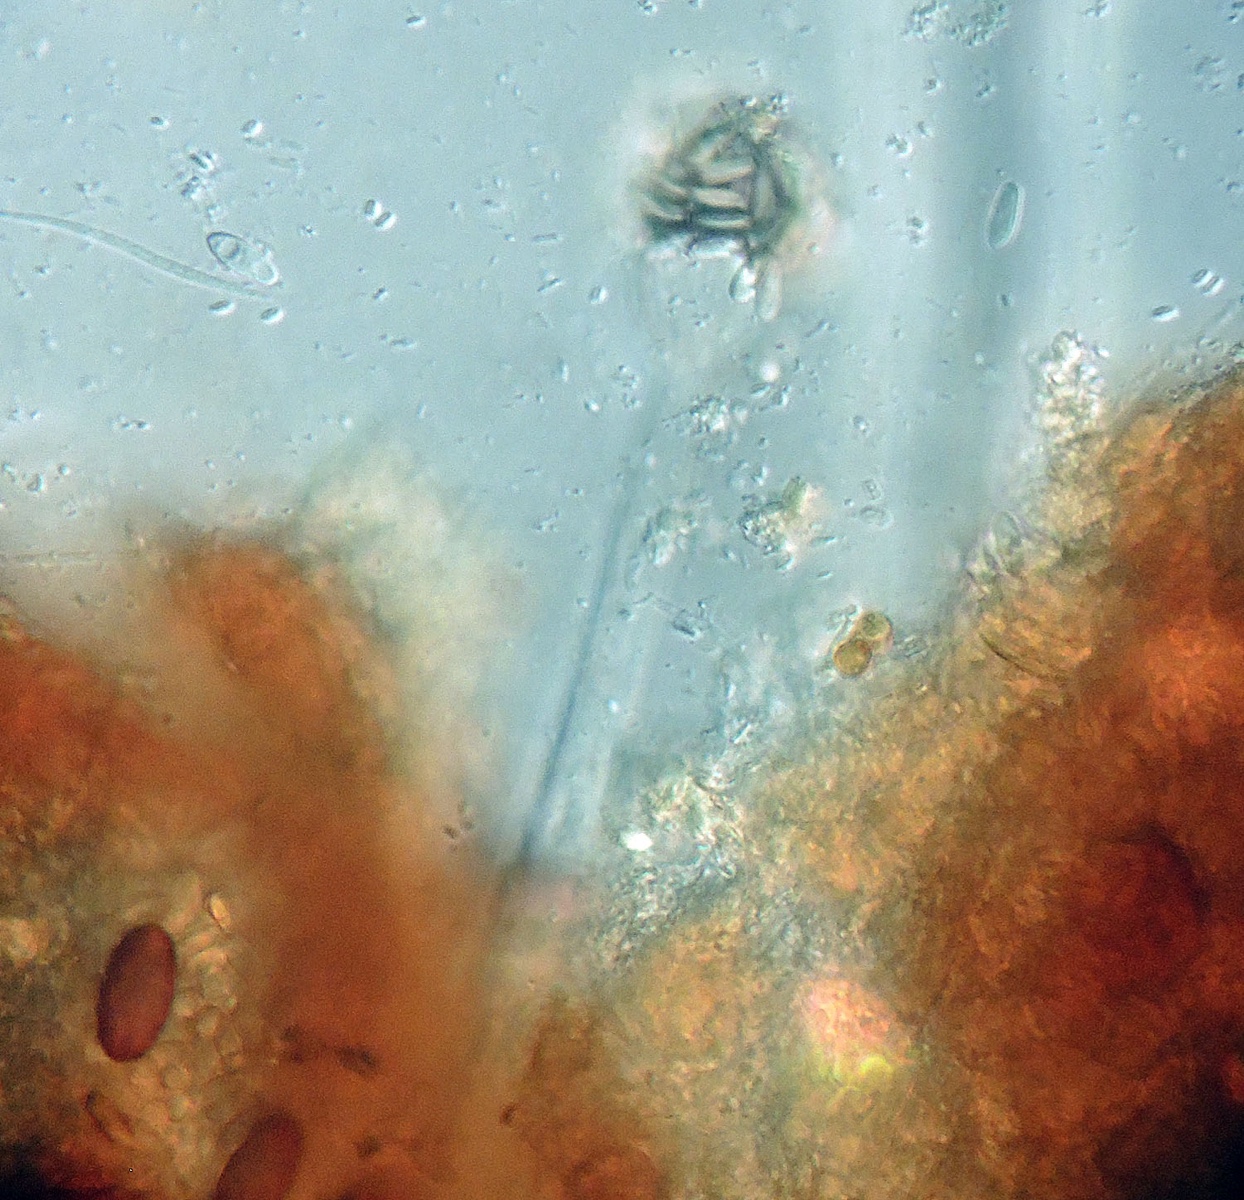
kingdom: Fungi
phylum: Ascomycota
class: Pezizomycetes
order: Pezizales
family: Pezizaceae
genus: Peziza
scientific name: Peziza vesiculosa
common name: Blistered cup
